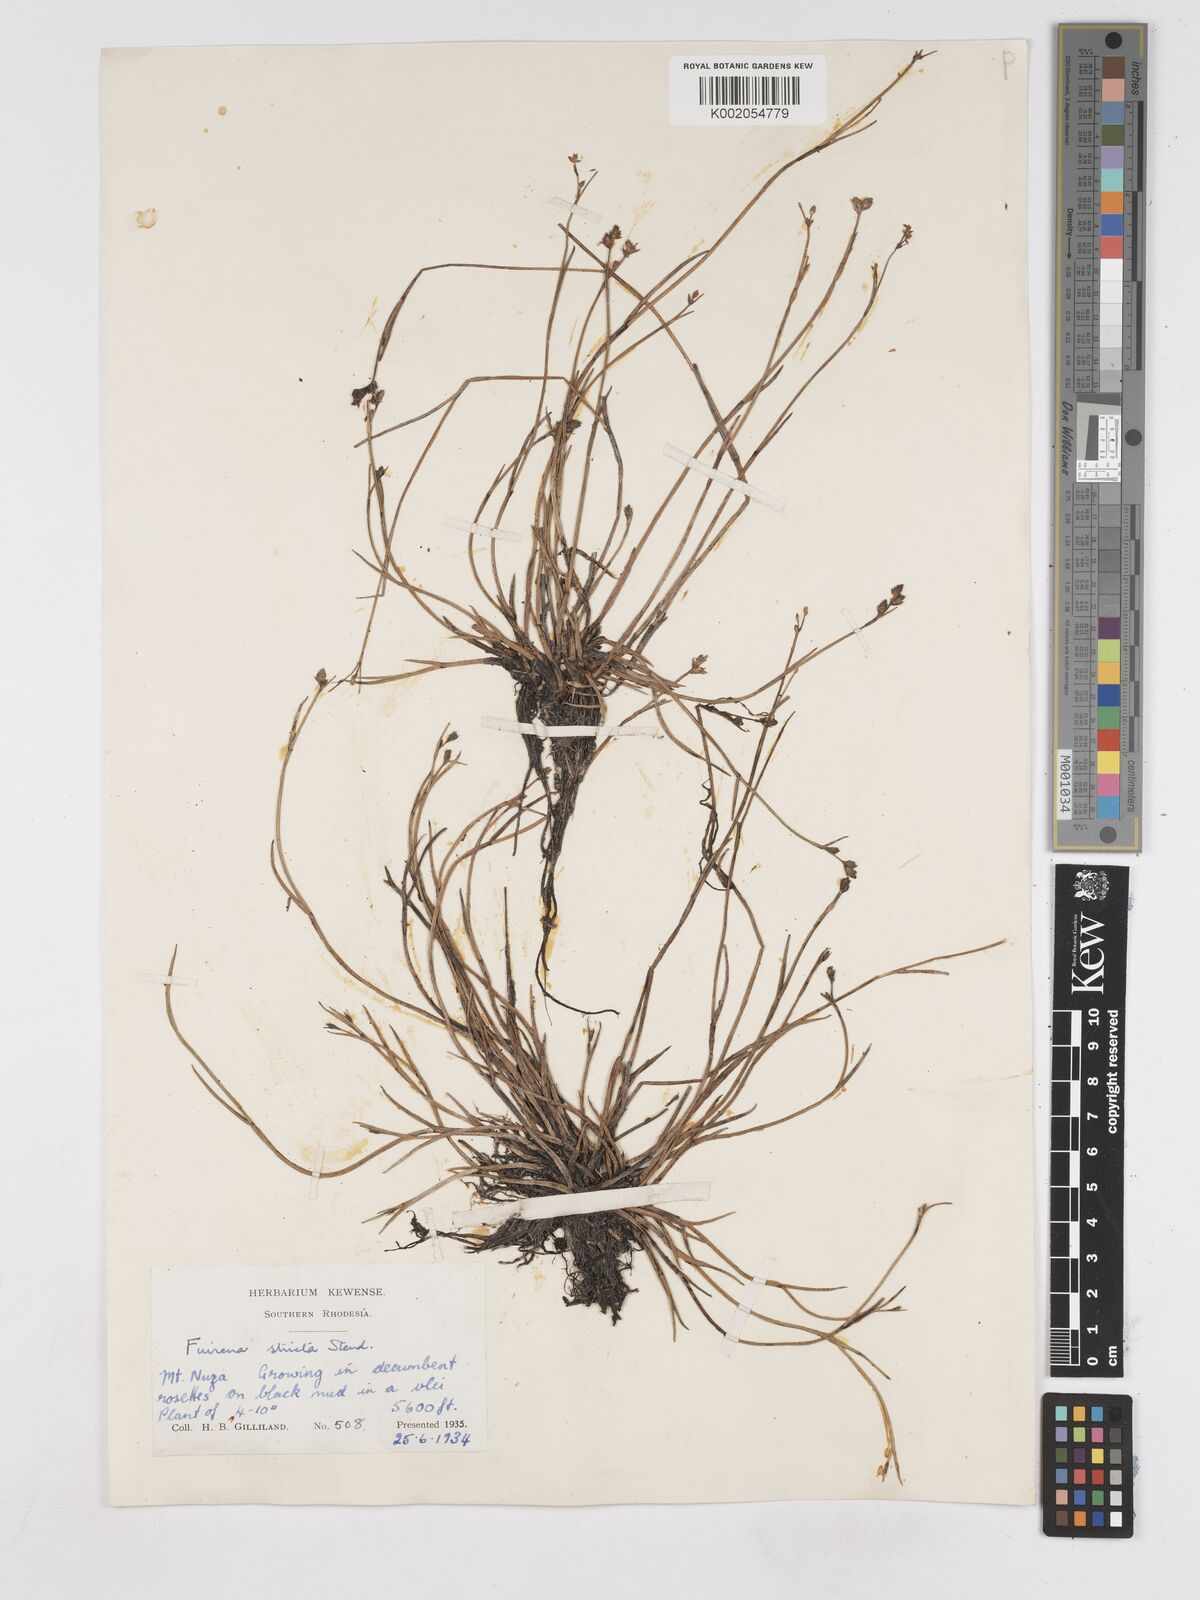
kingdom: Plantae
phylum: Tracheophyta
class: Liliopsida
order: Poales
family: Cyperaceae
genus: Fuirena
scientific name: Fuirena stricta
